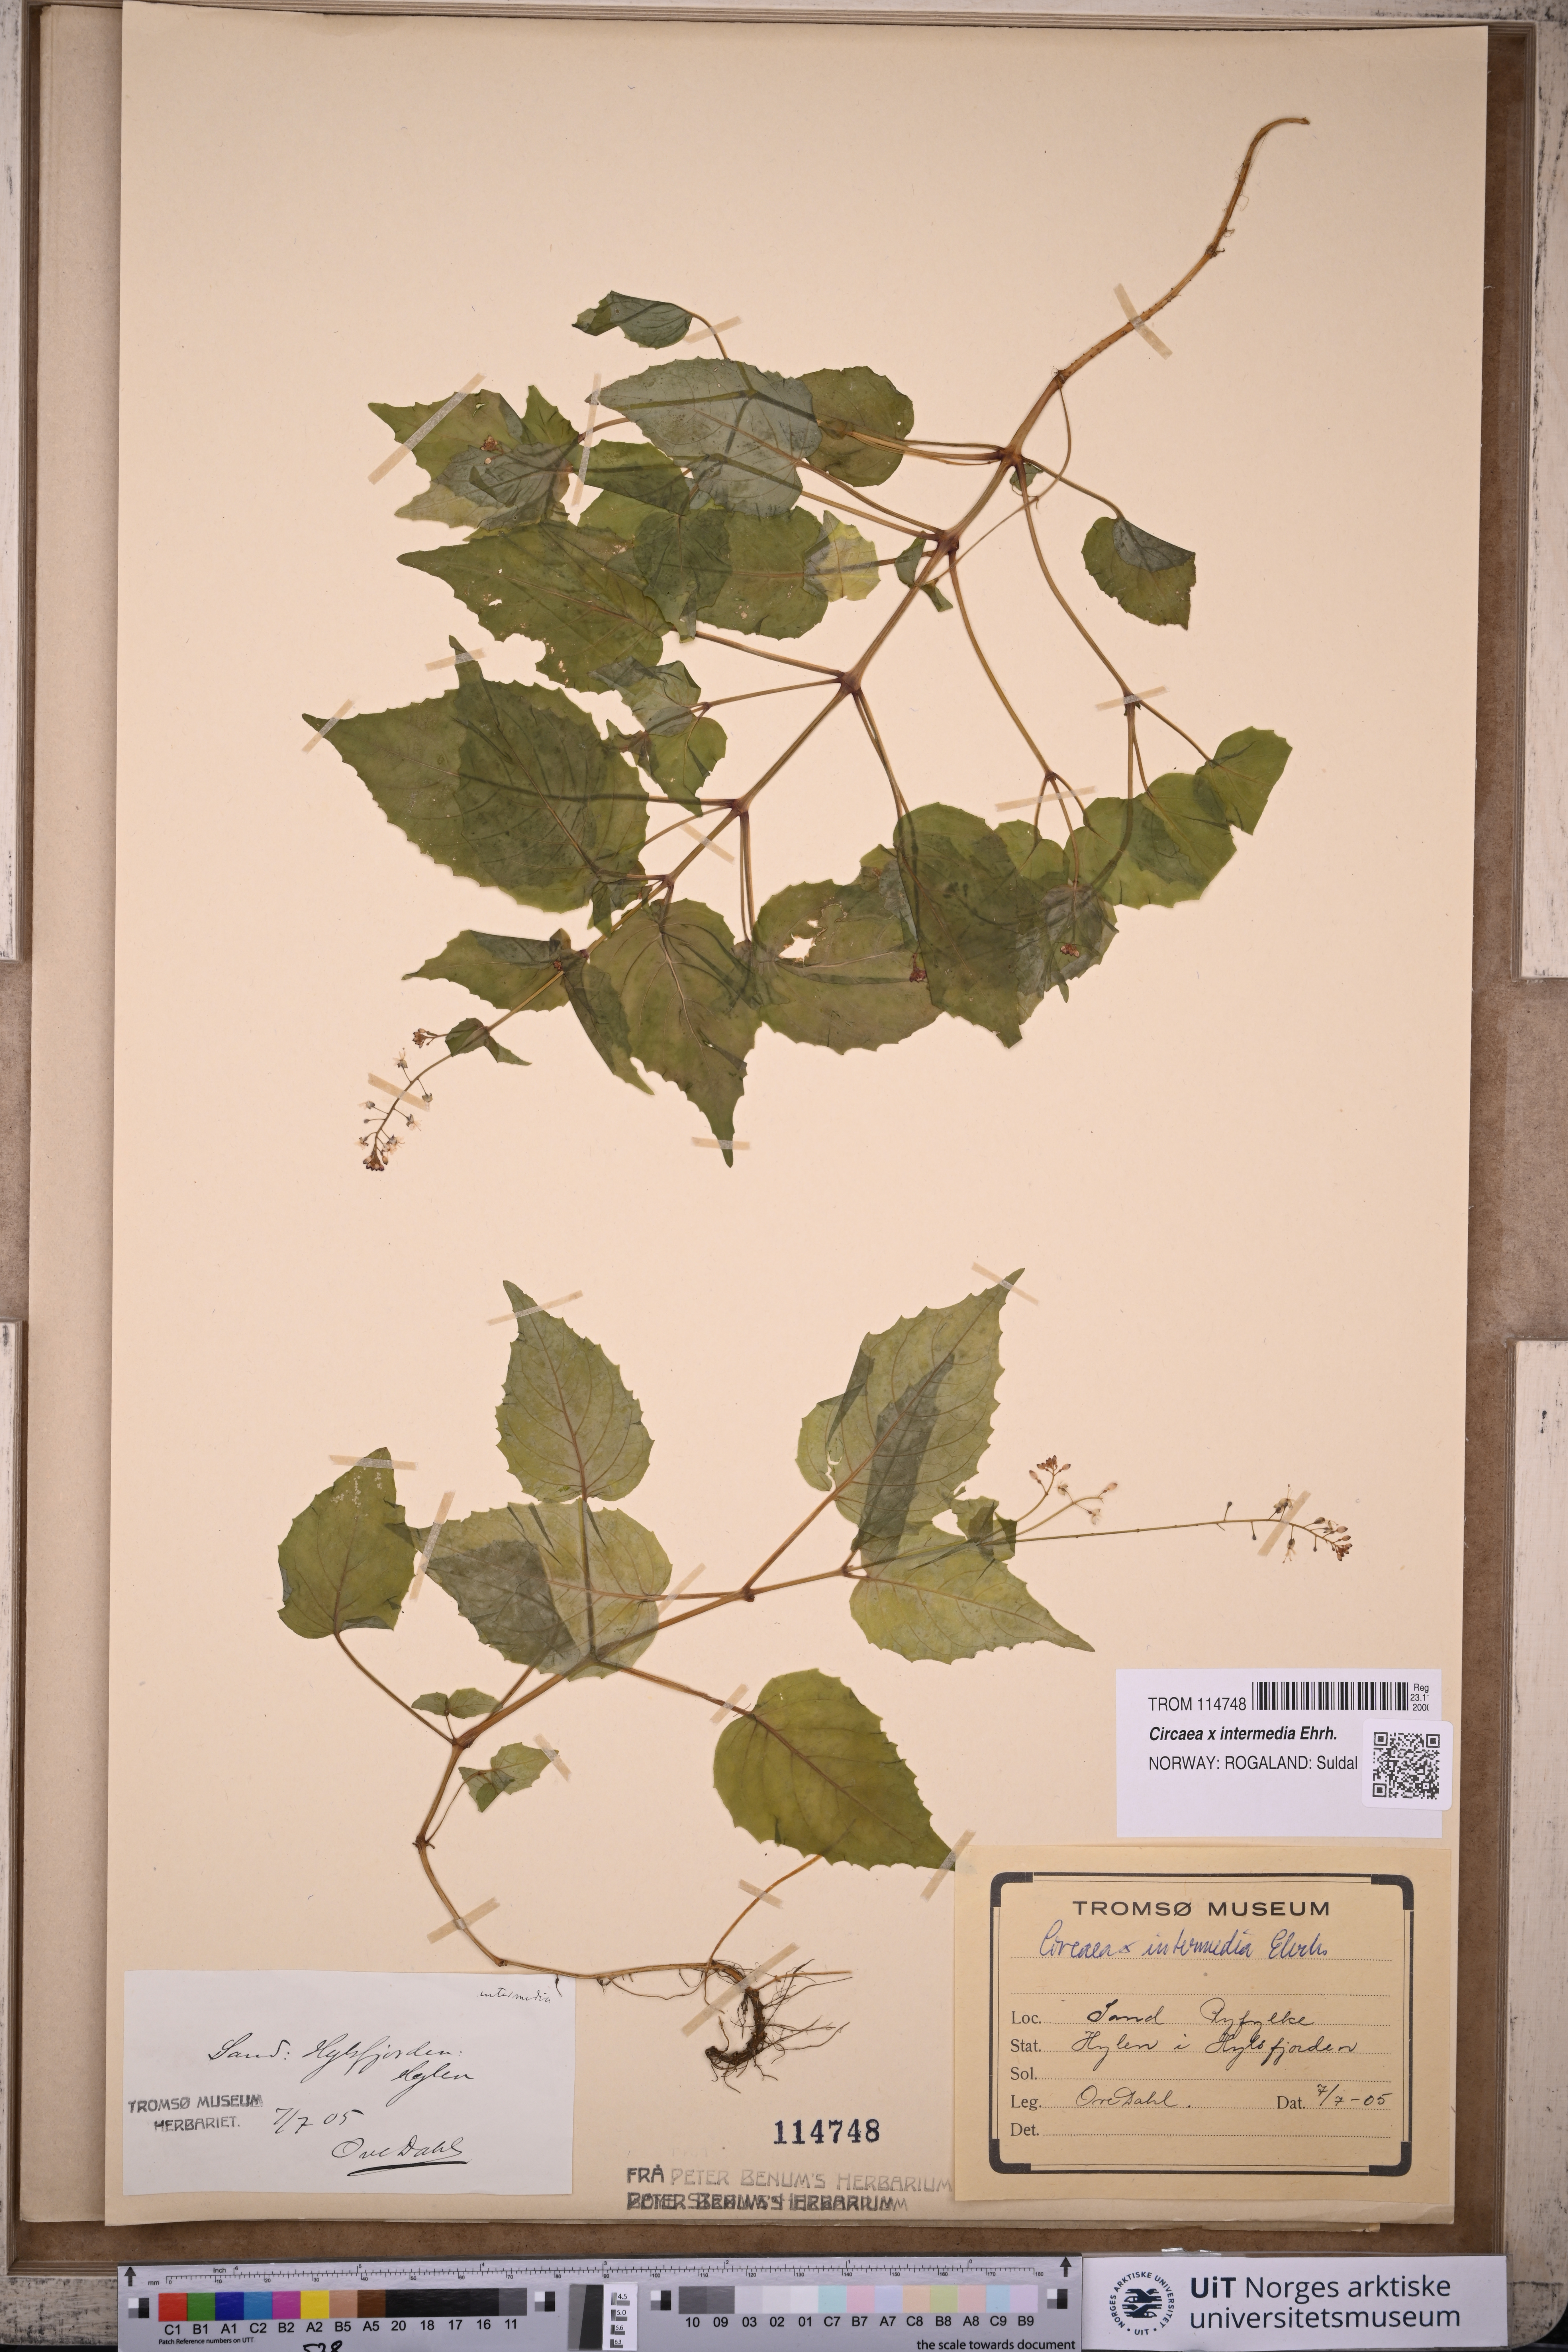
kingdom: Plantae
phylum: Tracheophyta
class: Magnoliopsida
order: Myrtales
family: Onagraceae
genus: Circaea
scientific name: Circaea intermedia
